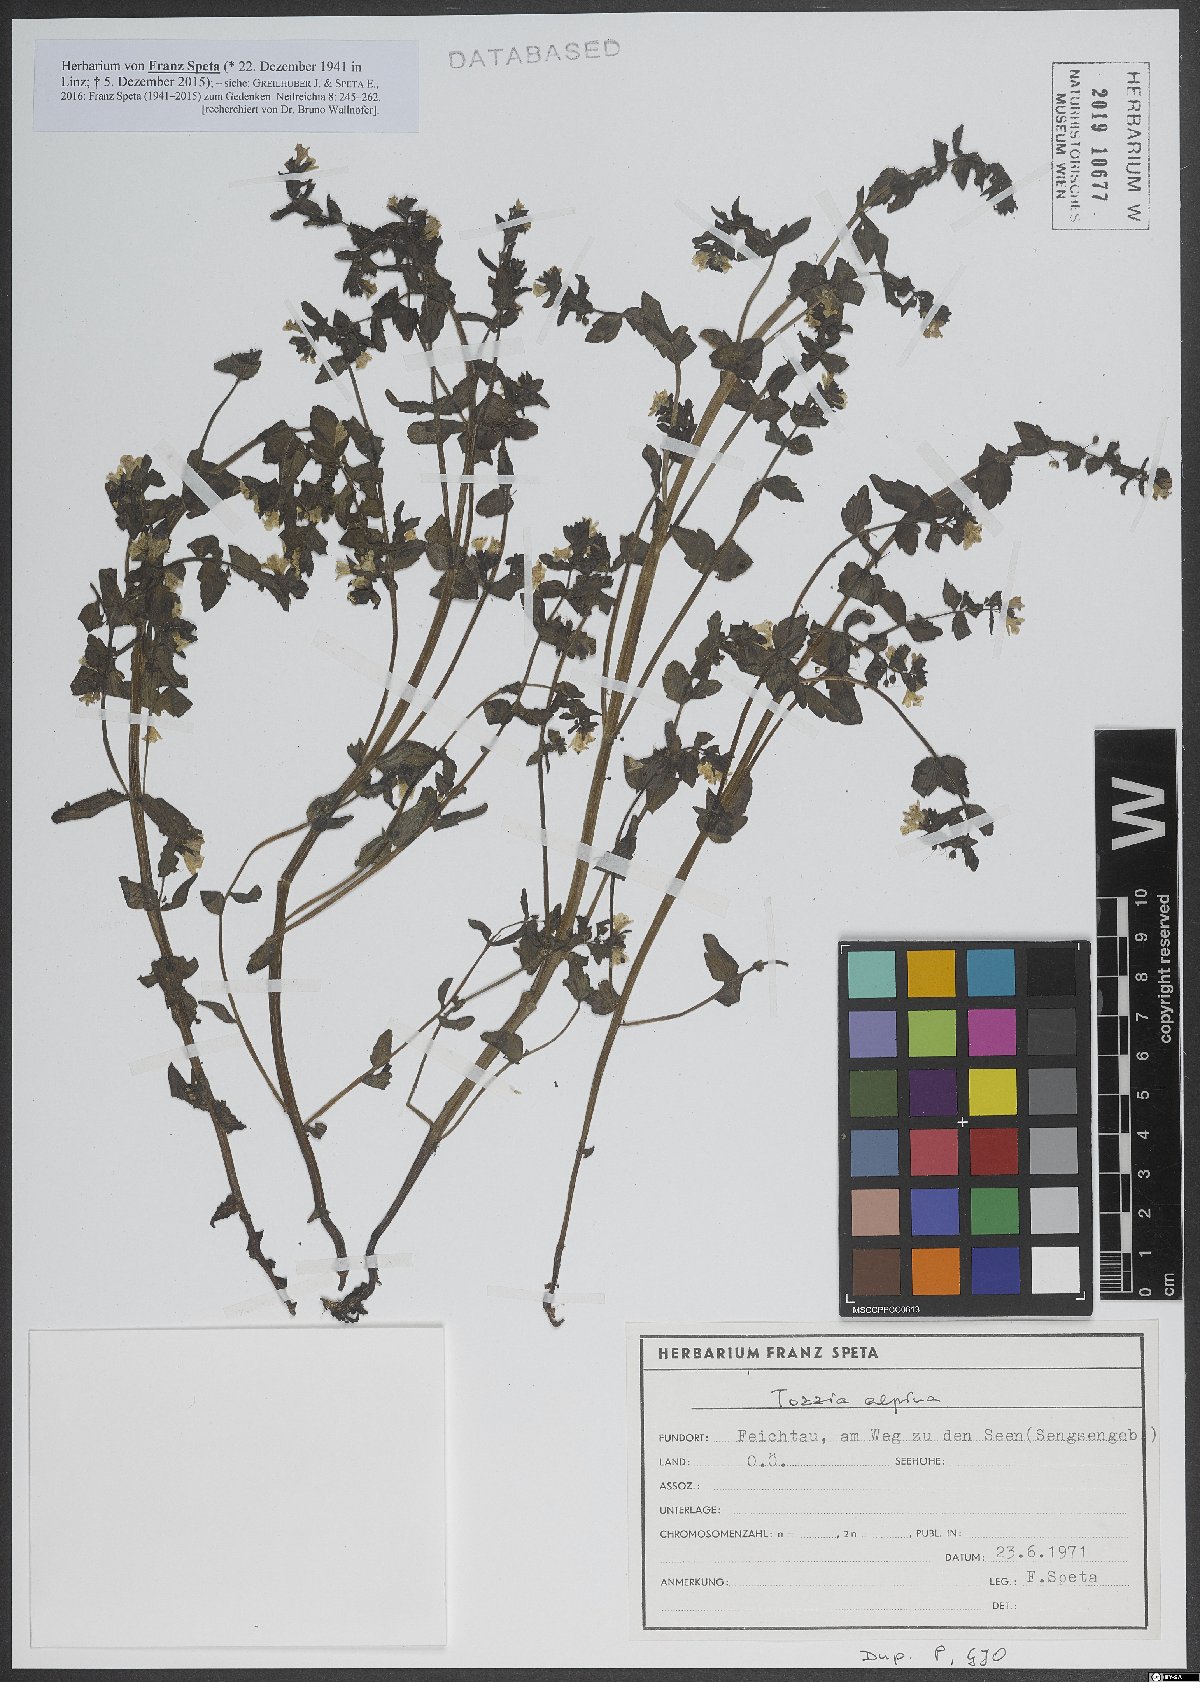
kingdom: Plantae
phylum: Tracheophyta
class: Magnoliopsida
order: Lamiales
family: Orobanchaceae
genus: Tozzia
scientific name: Tozzia alpina
